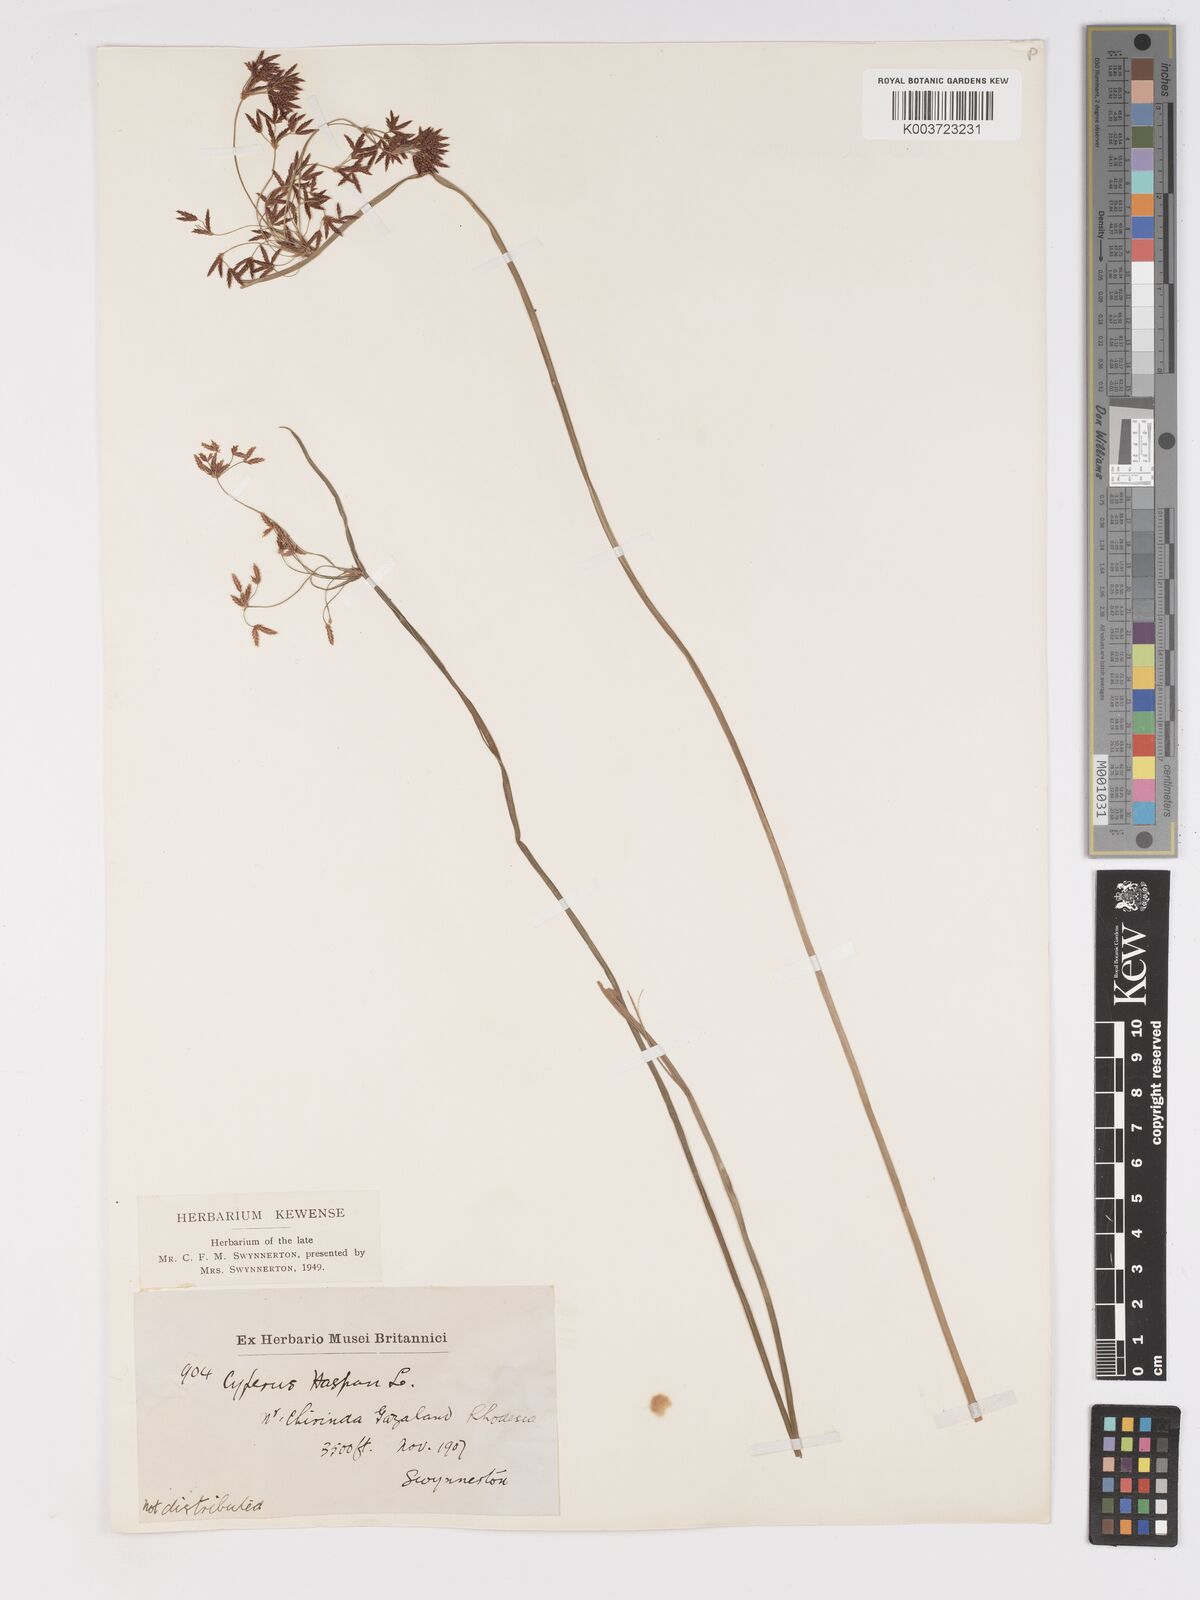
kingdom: Plantae
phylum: Tracheophyta
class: Liliopsida
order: Poales
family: Cyperaceae
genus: Cyperus
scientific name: Cyperus haspan
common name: Haspan flatsedge
